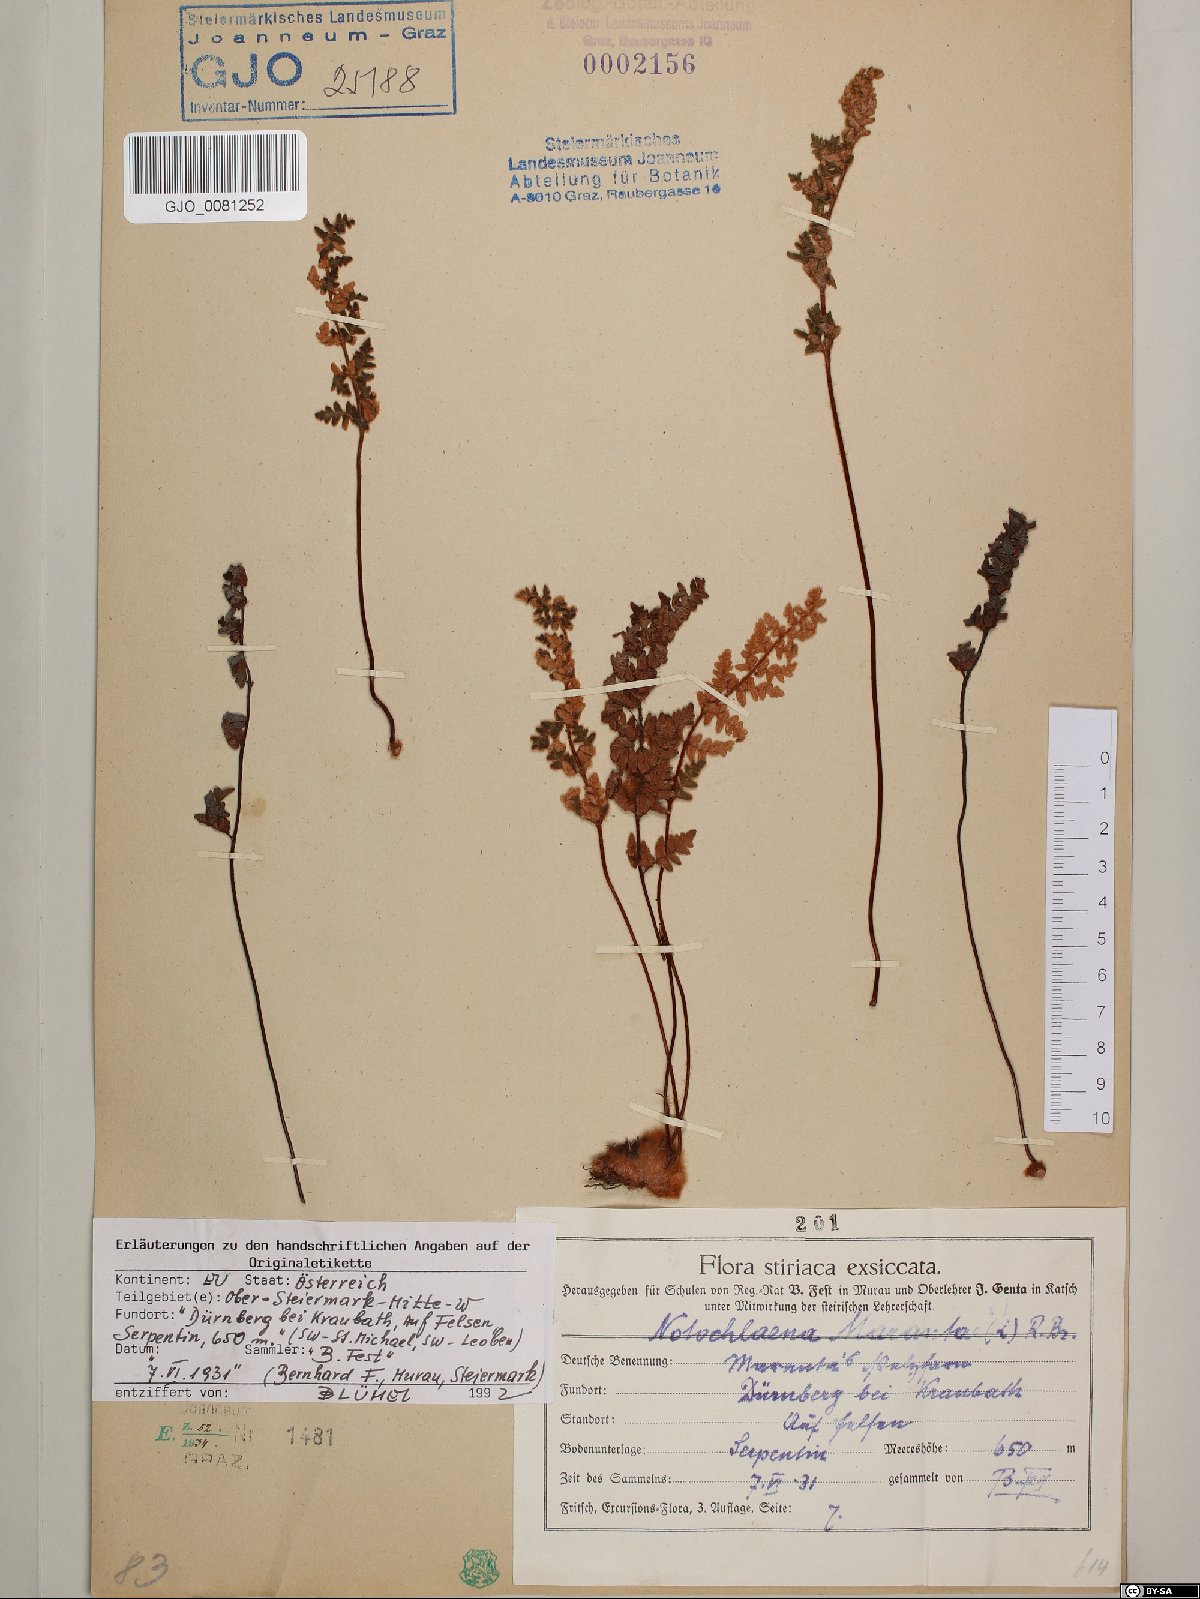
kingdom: Plantae
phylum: Tracheophyta
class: Polypodiopsida
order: Polypodiales
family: Pteridaceae
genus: Paragymnopteris
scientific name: Paragymnopteris marantae
